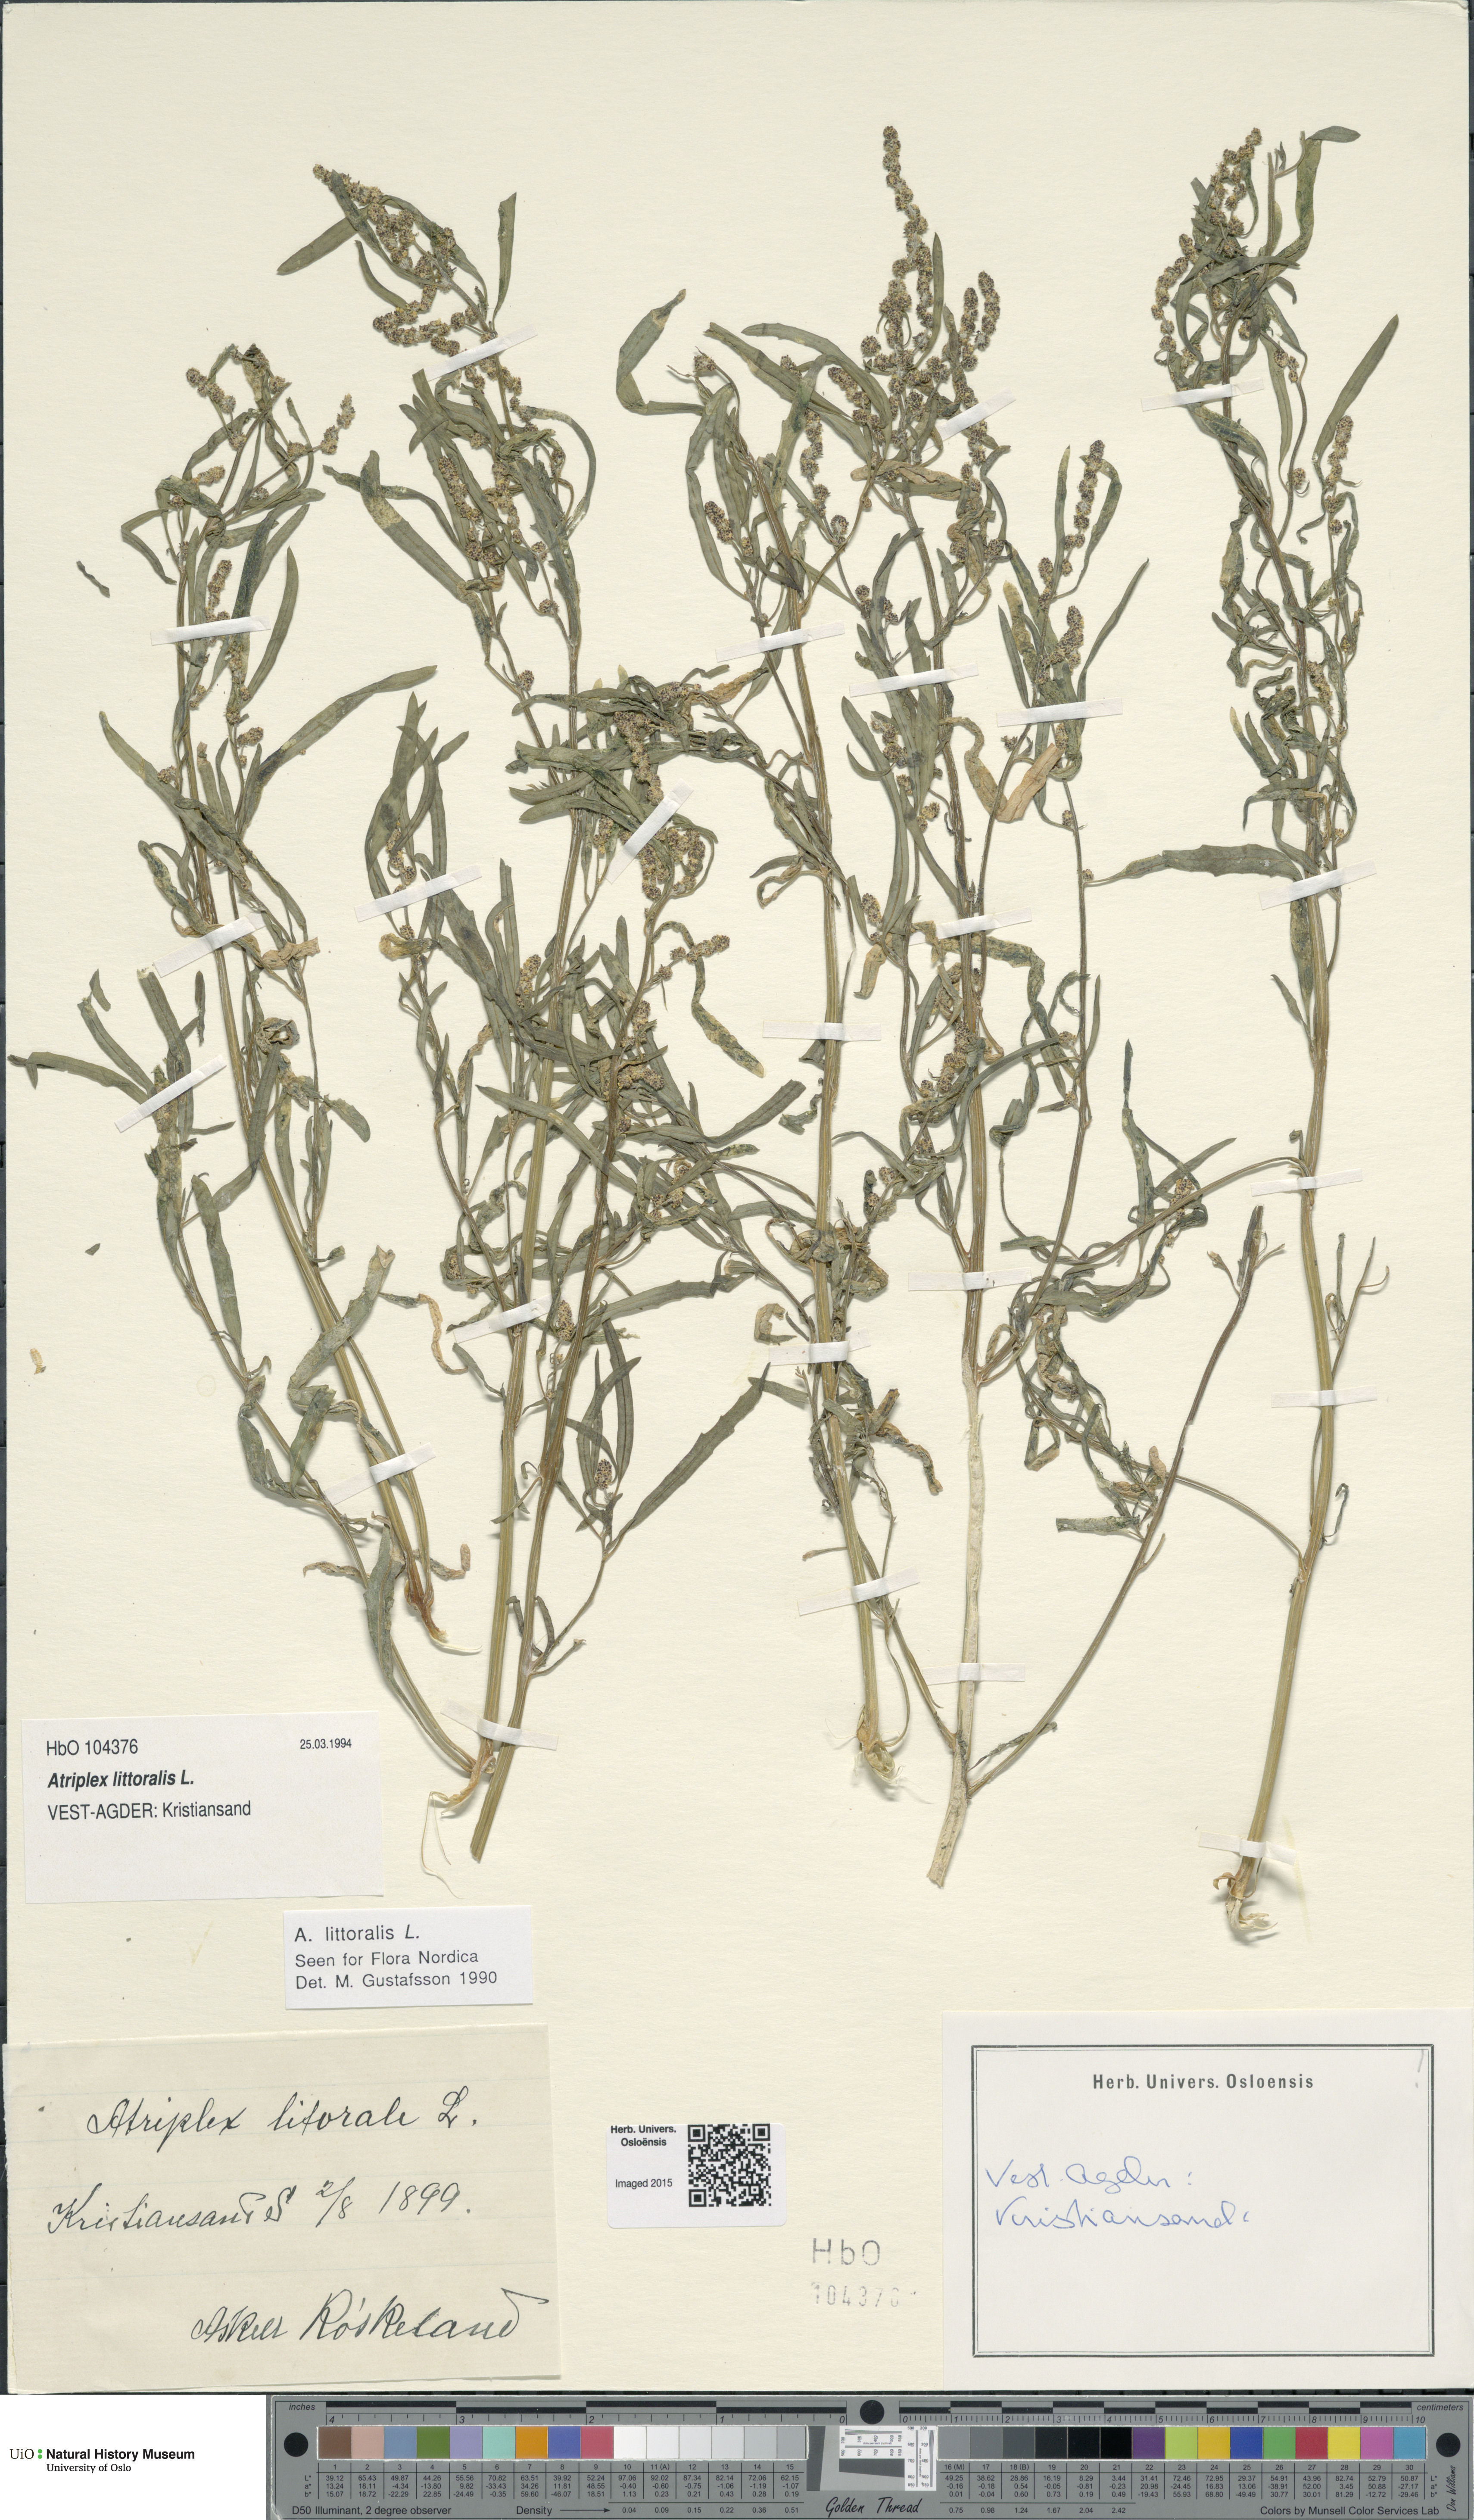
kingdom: Plantae
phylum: Tracheophyta
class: Magnoliopsida
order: Caryophyllales
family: Amaranthaceae
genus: Atriplex
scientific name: Atriplex littoralis
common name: Grass-leaved orache
